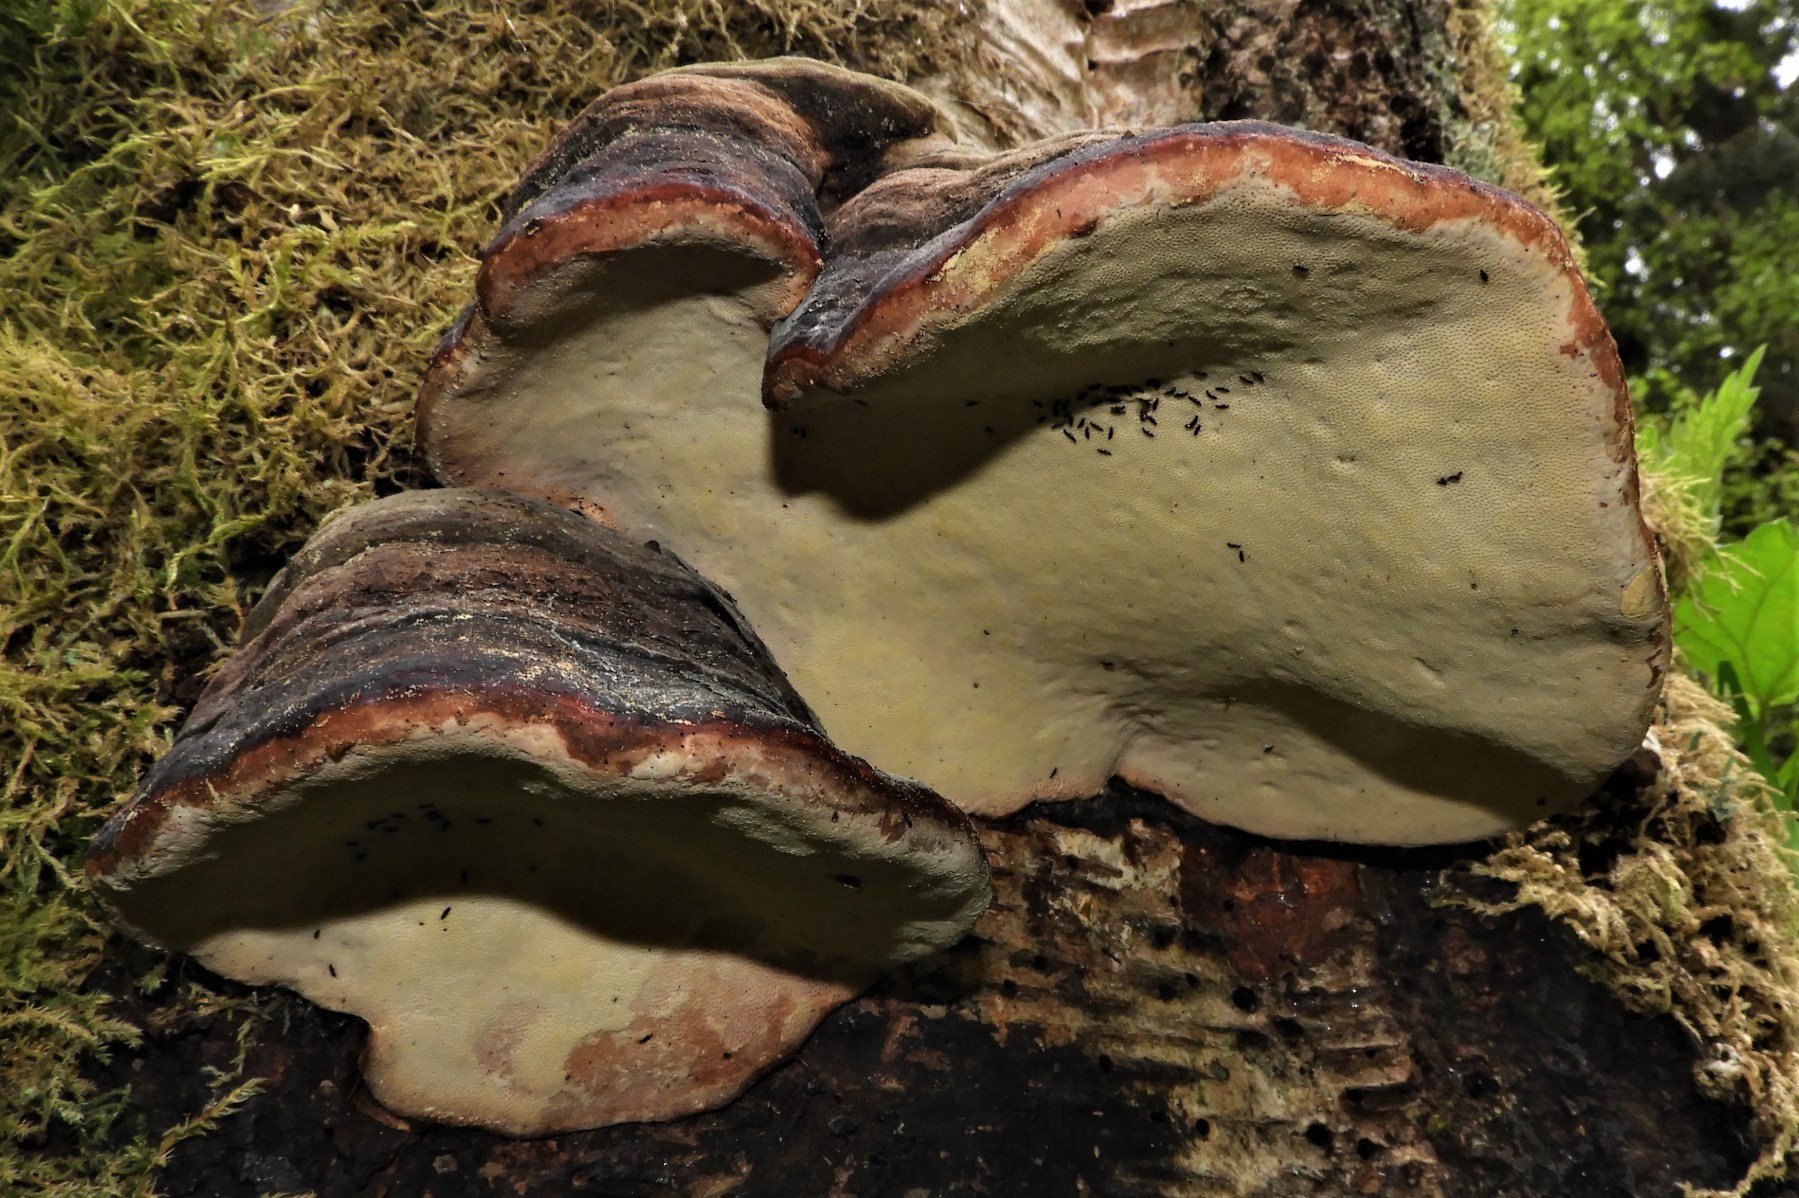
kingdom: Fungi
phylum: Basidiomycota
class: Agaricomycetes
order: Polyporales
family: Fomitopsidaceae
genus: Fomitopsis
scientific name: Fomitopsis pinicola
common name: randbæltet hovporesvamp
